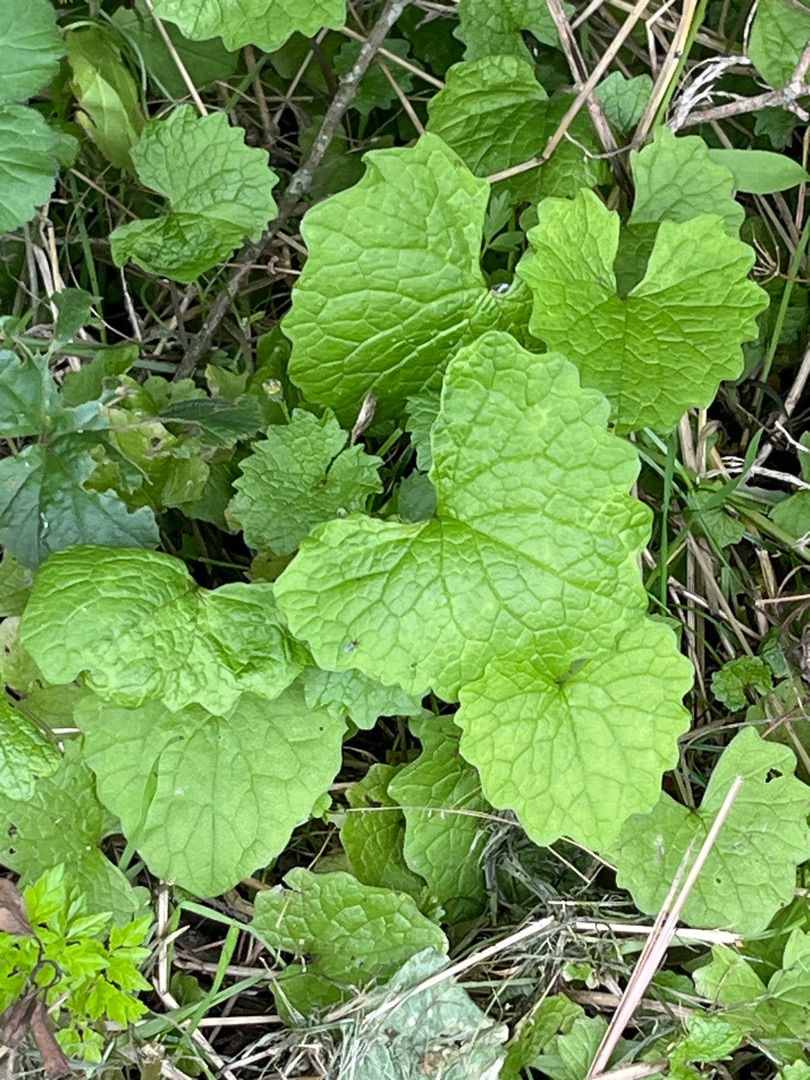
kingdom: Plantae
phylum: Tracheophyta
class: Magnoliopsida
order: Brassicales
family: Brassicaceae
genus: Alliaria
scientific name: Alliaria petiolata
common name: Løgkarse
